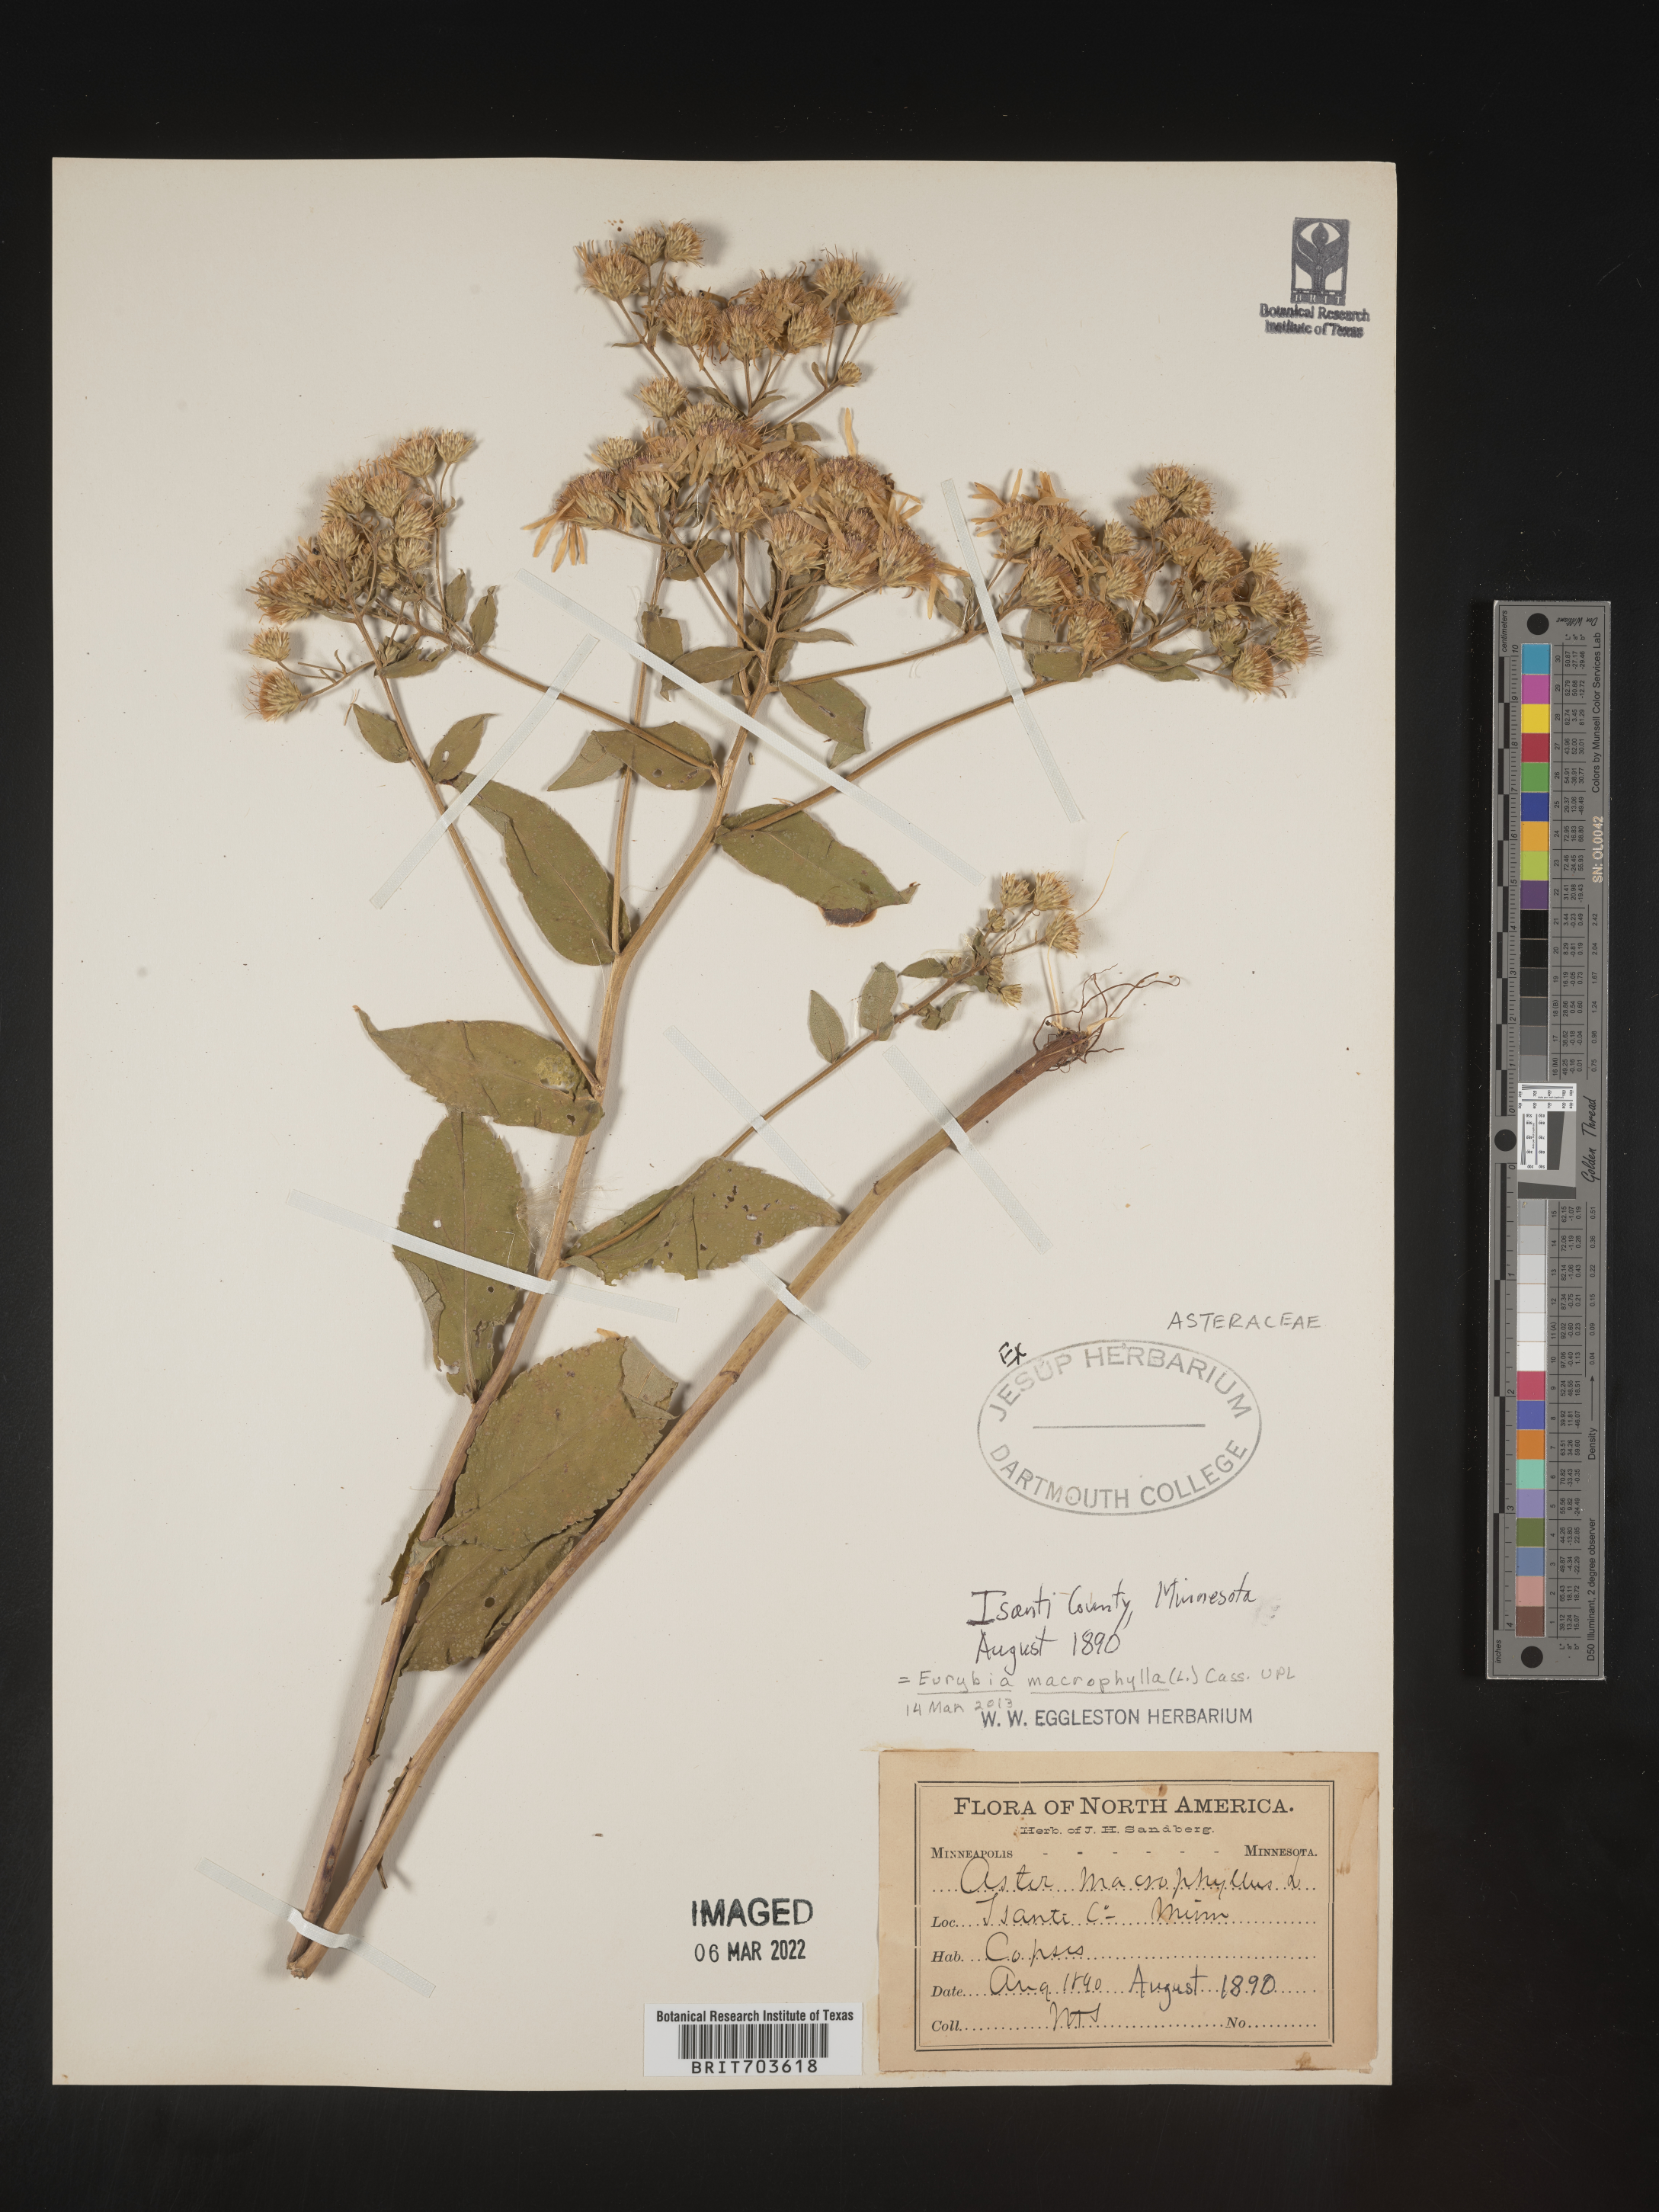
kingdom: Plantae
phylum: Tracheophyta
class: Magnoliopsida
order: Asterales
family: Asteraceae
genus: Eurybia
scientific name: Eurybia macrophylla
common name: Big-leaved aster
